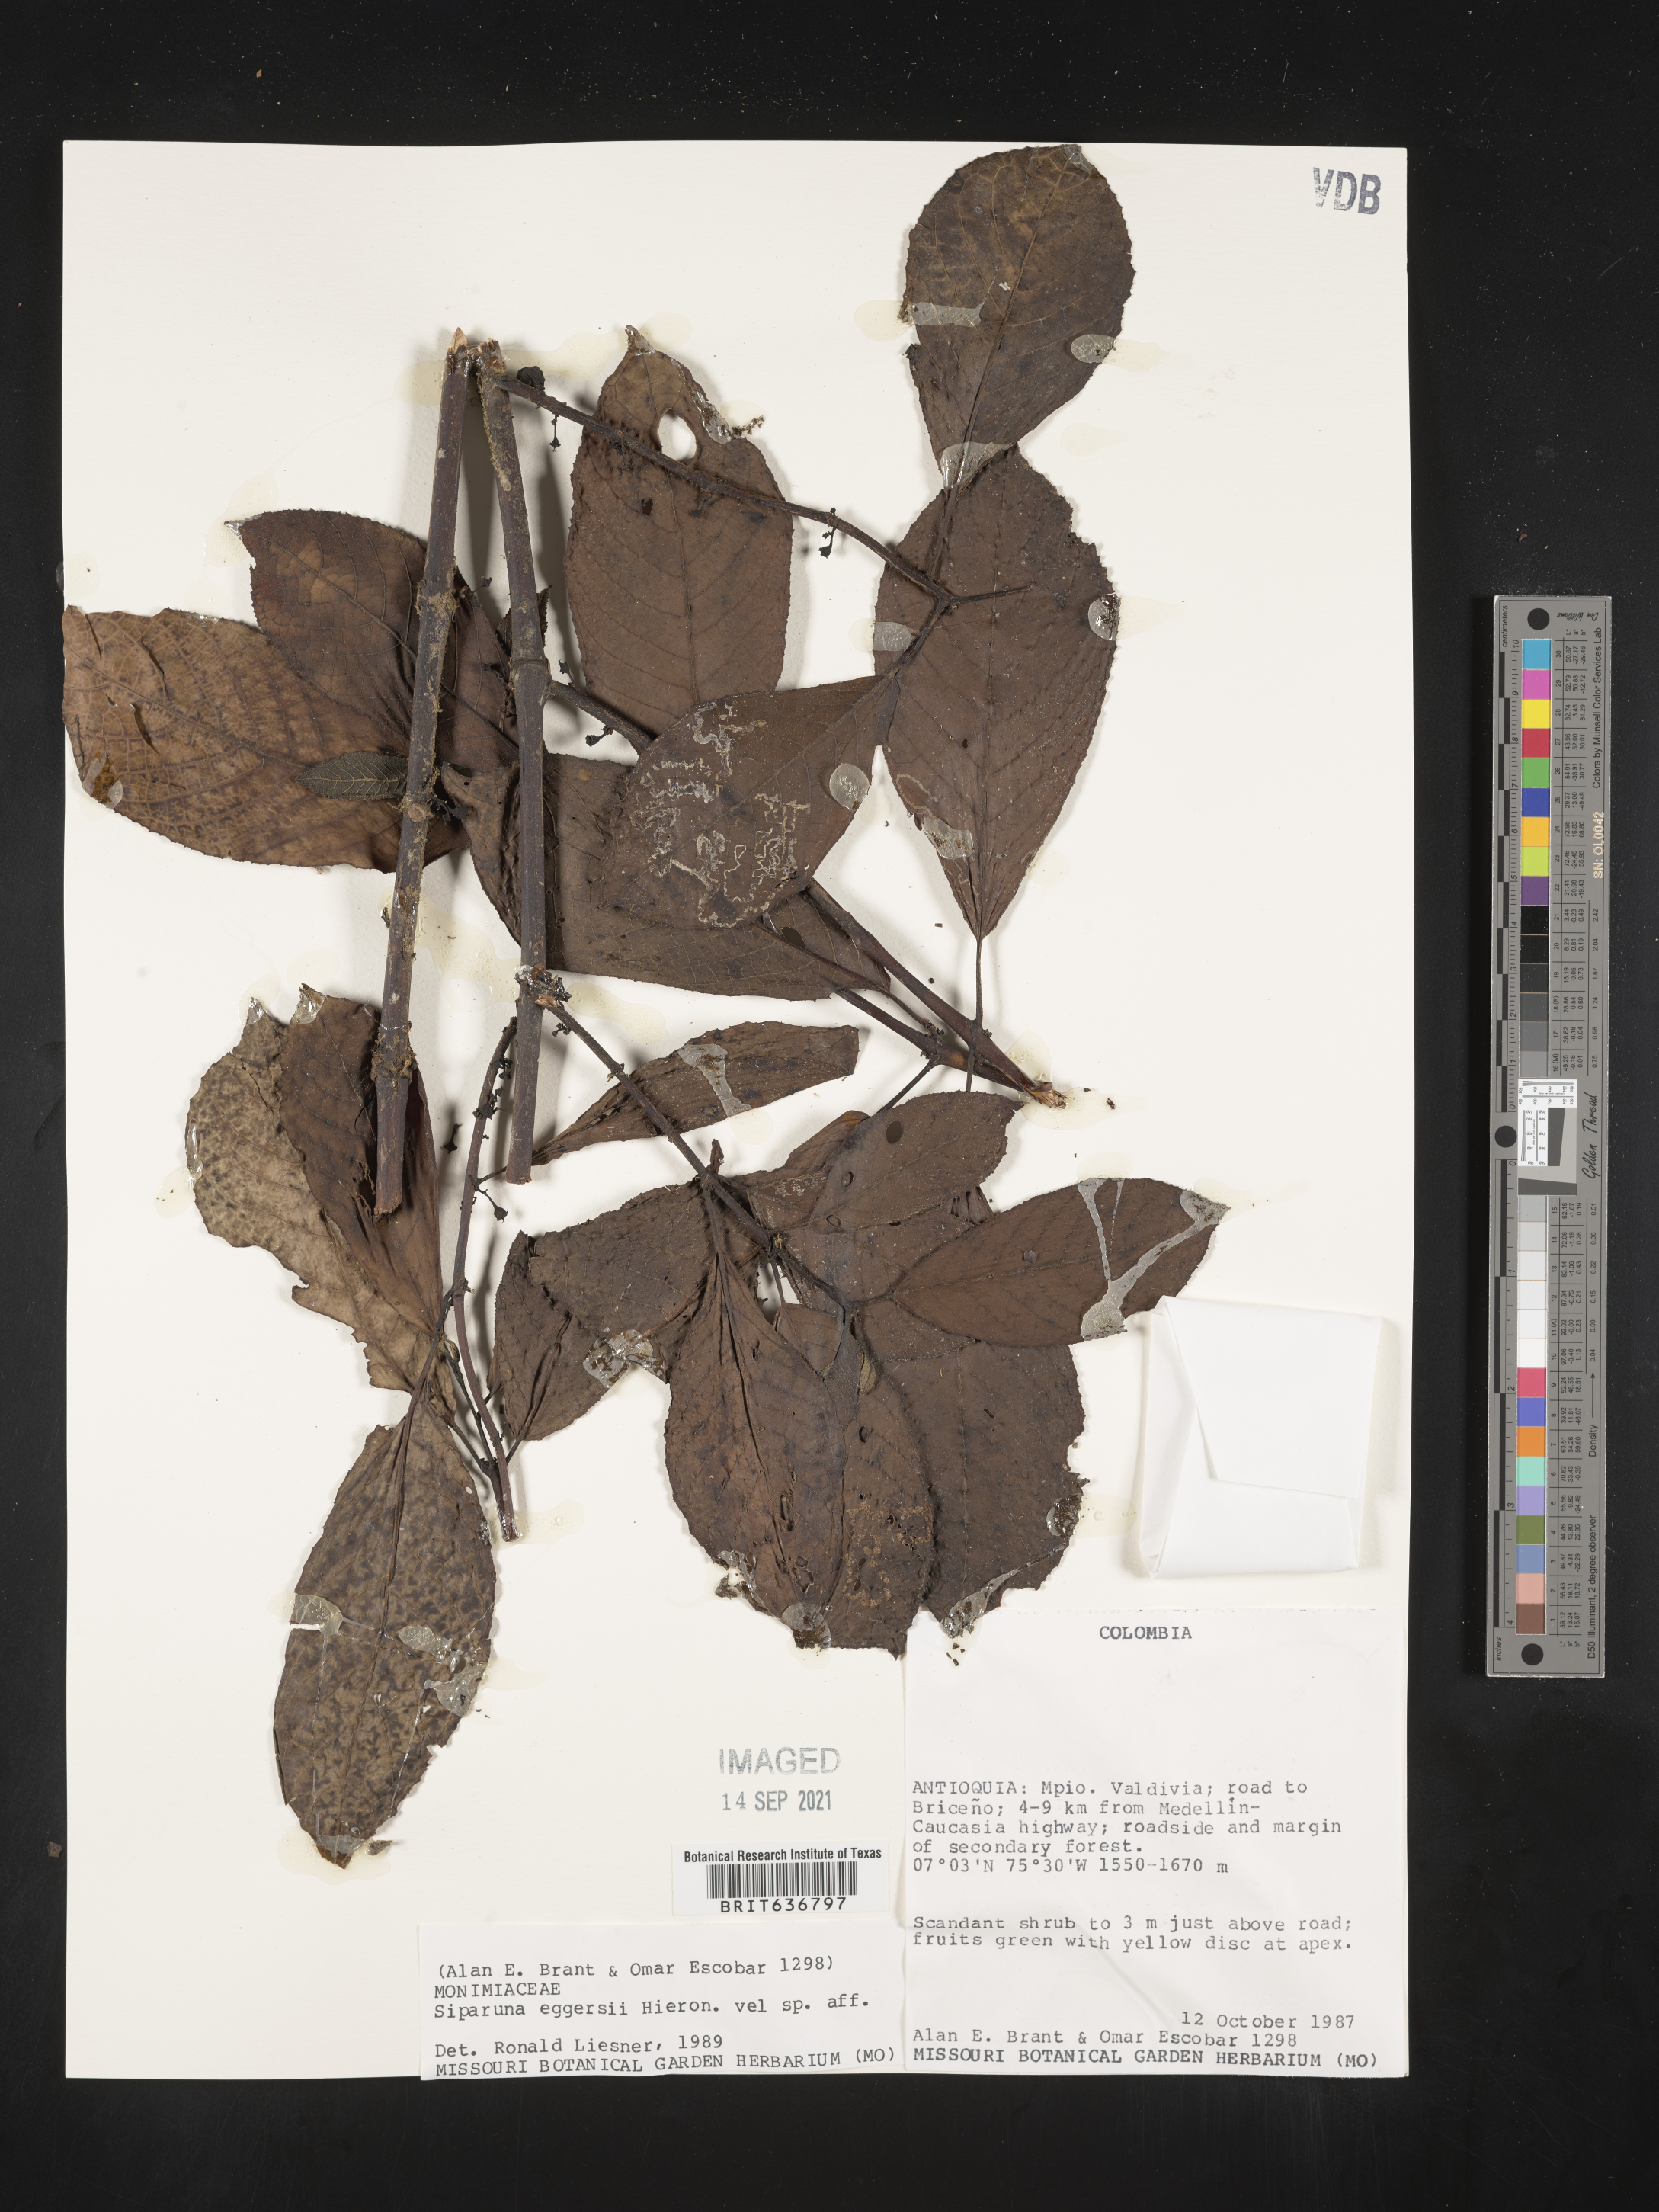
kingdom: Plantae
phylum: Tracheophyta
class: Magnoliopsida
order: Laurales
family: Siparunaceae
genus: Siparuna
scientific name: Siparuna
